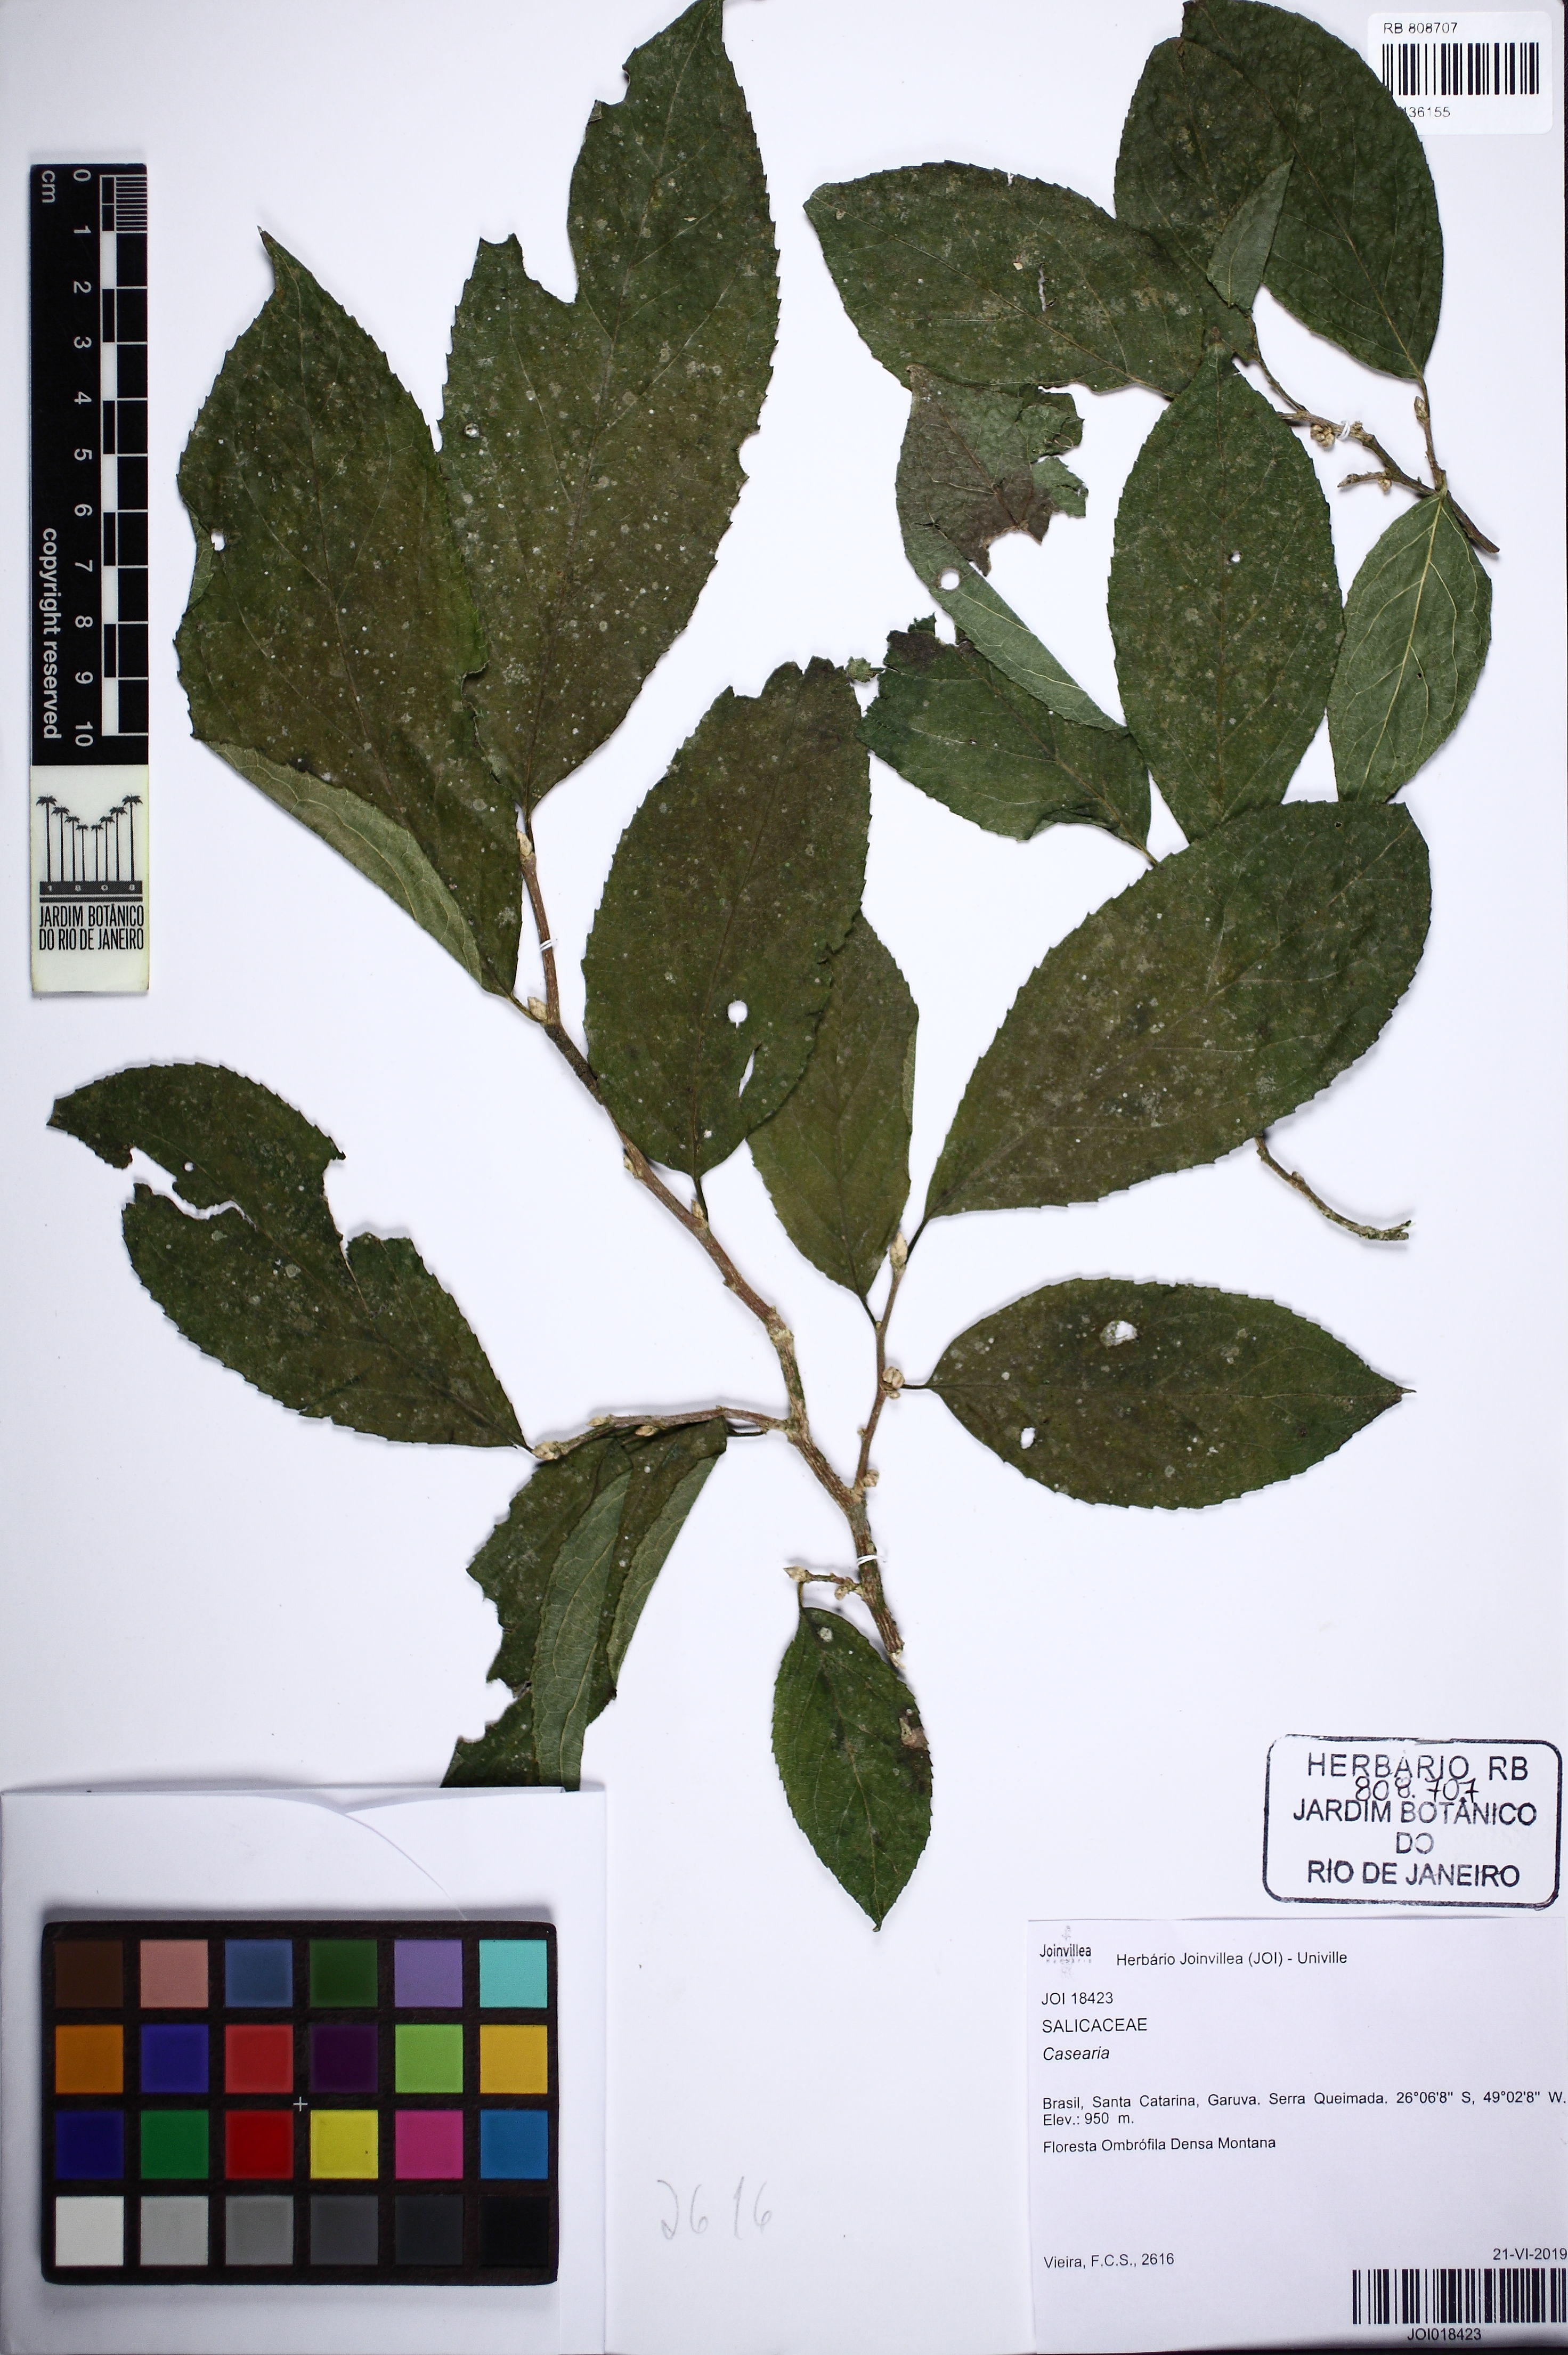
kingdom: Plantae
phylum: Tracheophyta
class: Magnoliopsida
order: Malpighiales
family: Salicaceae
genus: Casearia
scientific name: Casearia
